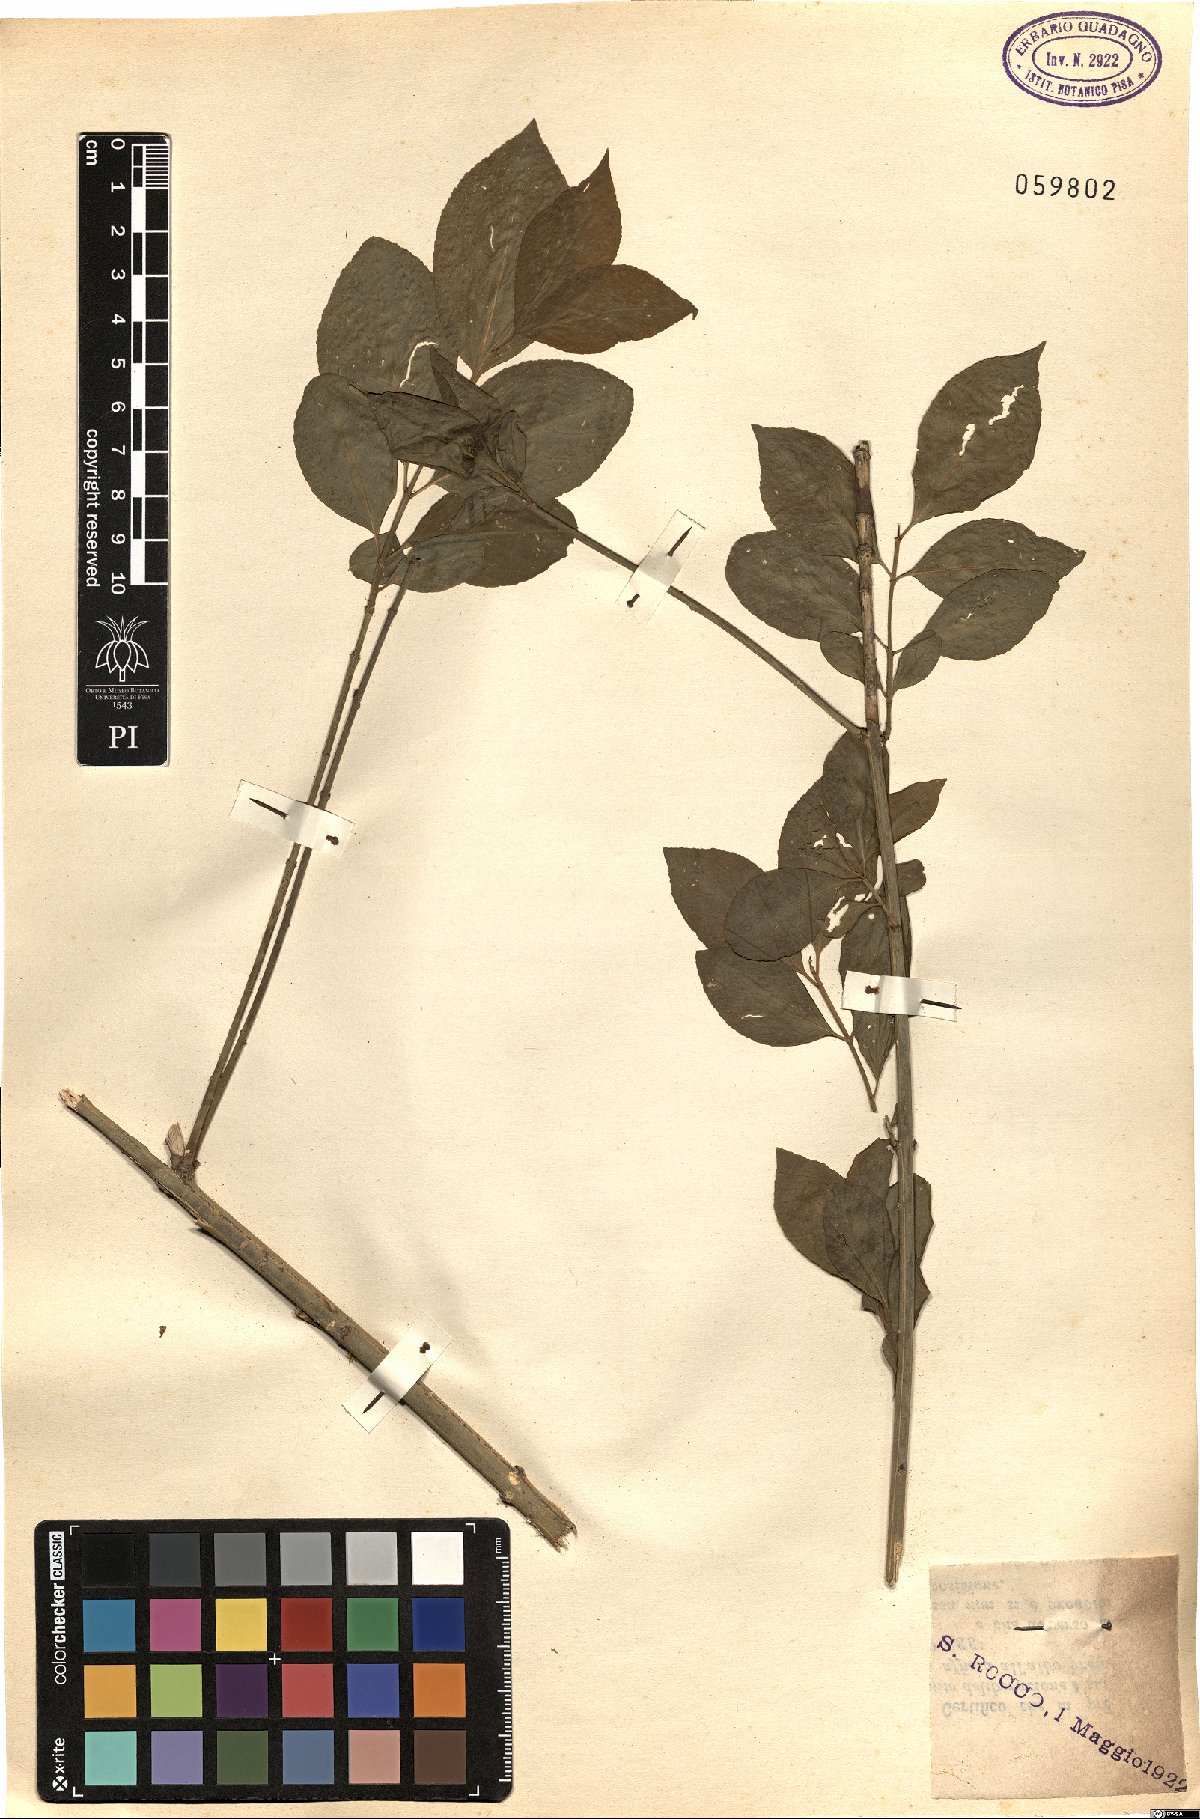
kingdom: Plantae
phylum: Tracheophyta
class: Magnoliopsida
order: Celastrales
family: Celastraceae
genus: Euonymus
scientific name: Euonymus europaeus
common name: Spindle
